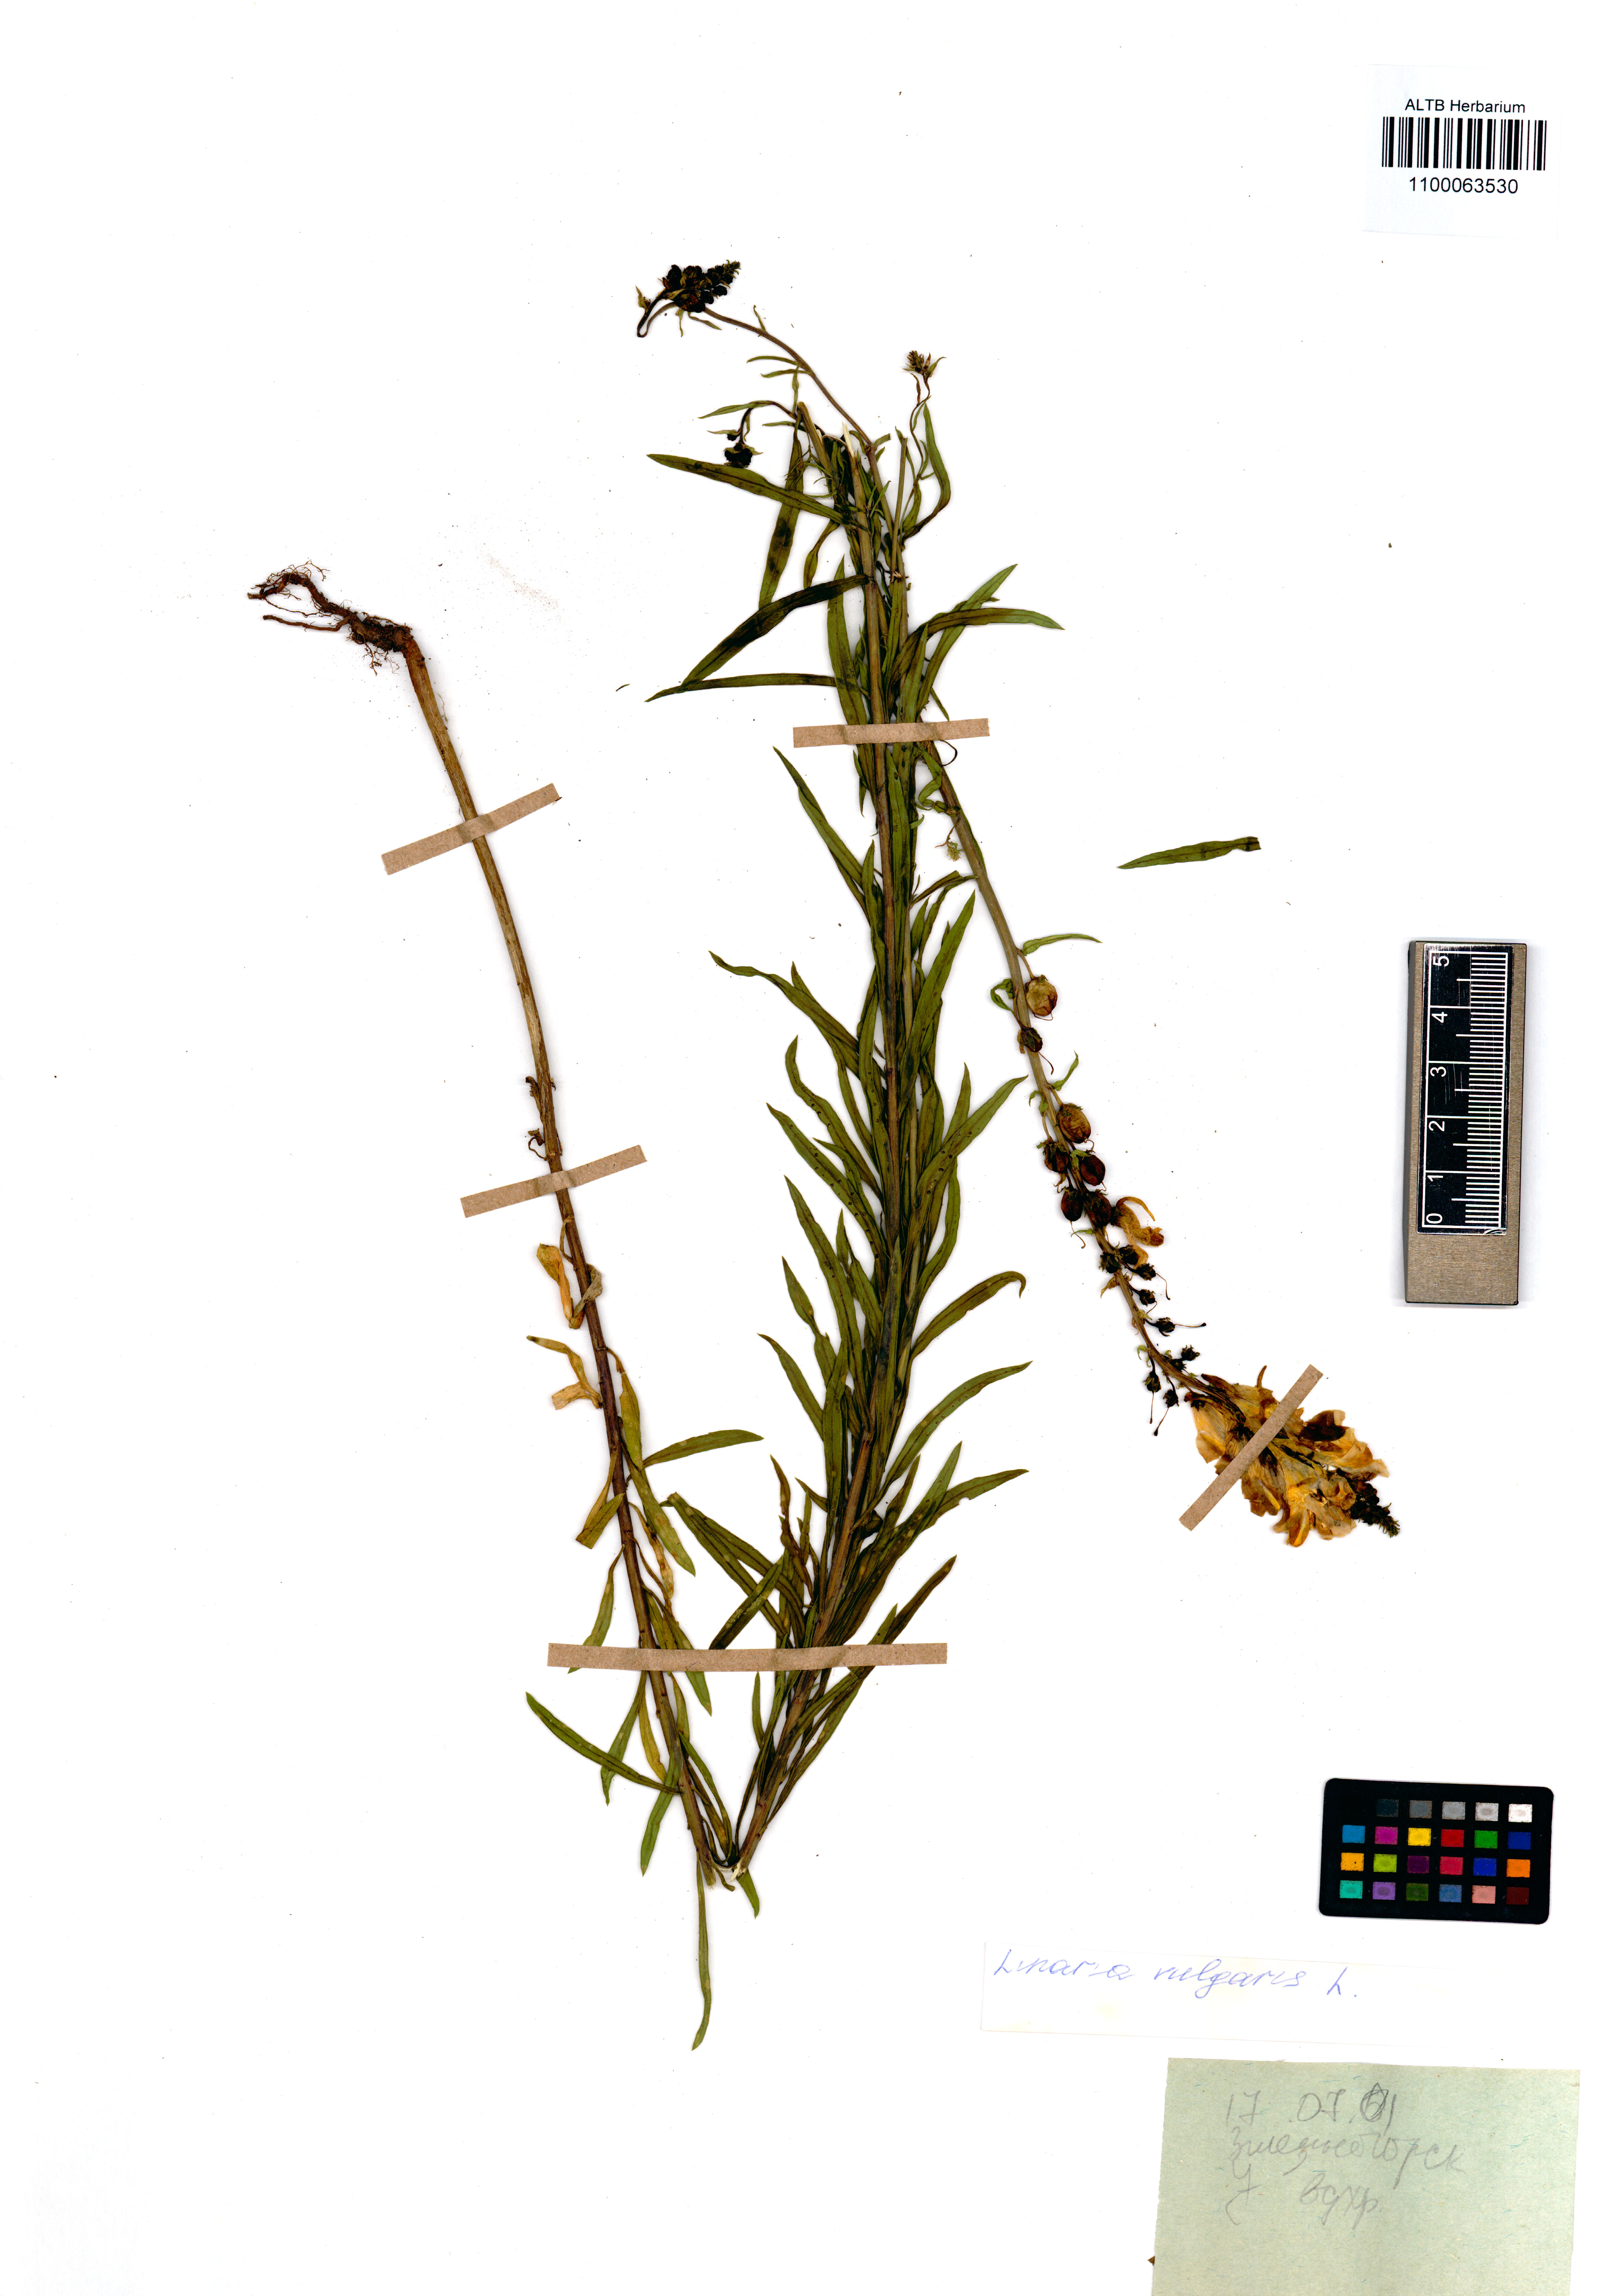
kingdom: Plantae
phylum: Tracheophyta
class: Magnoliopsida
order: Lamiales
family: Plantaginaceae
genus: Linaria
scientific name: Linaria vulgaris
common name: Butter and eggs
